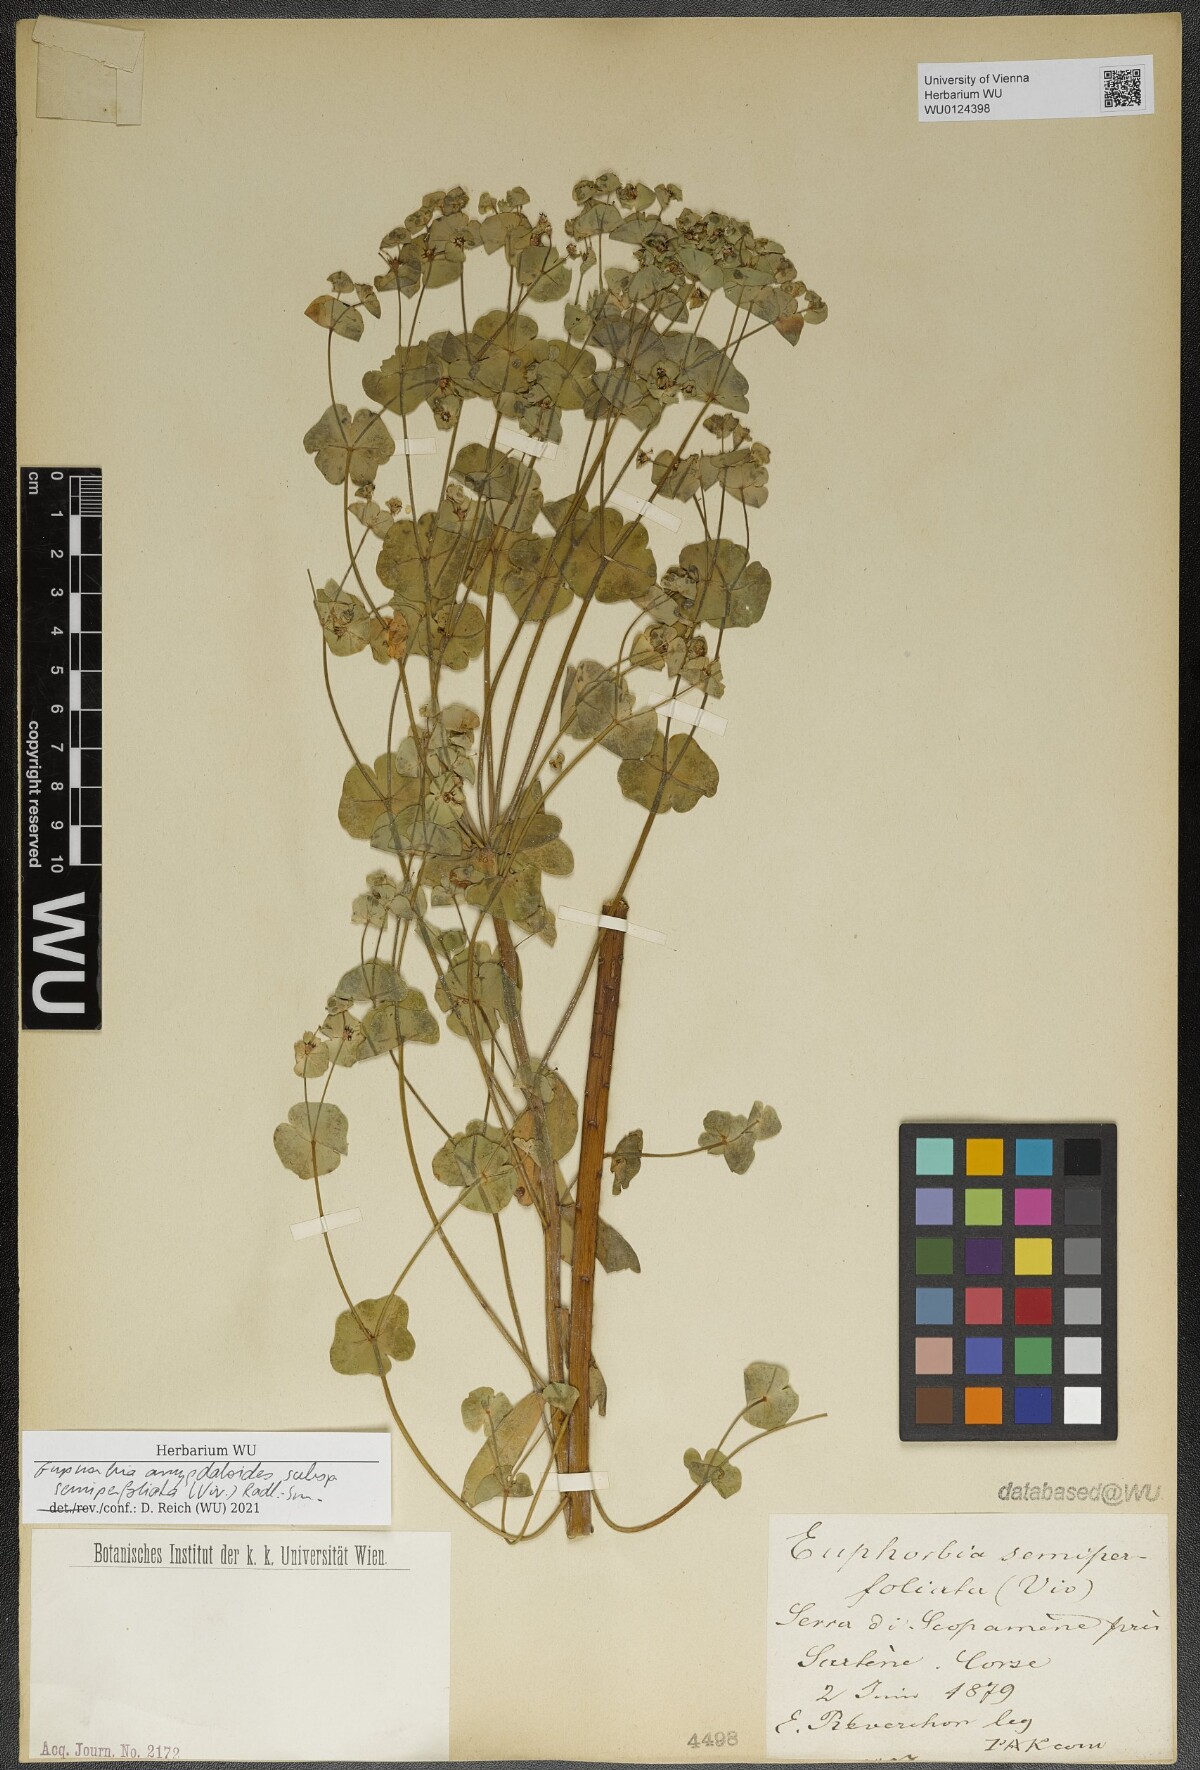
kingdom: Plantae
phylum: Tracheophyta
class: Magnoliopsida
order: Malpighiales
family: Euphorbiaceae
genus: Euphorbia
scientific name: Euphorbia semiperfoliata
